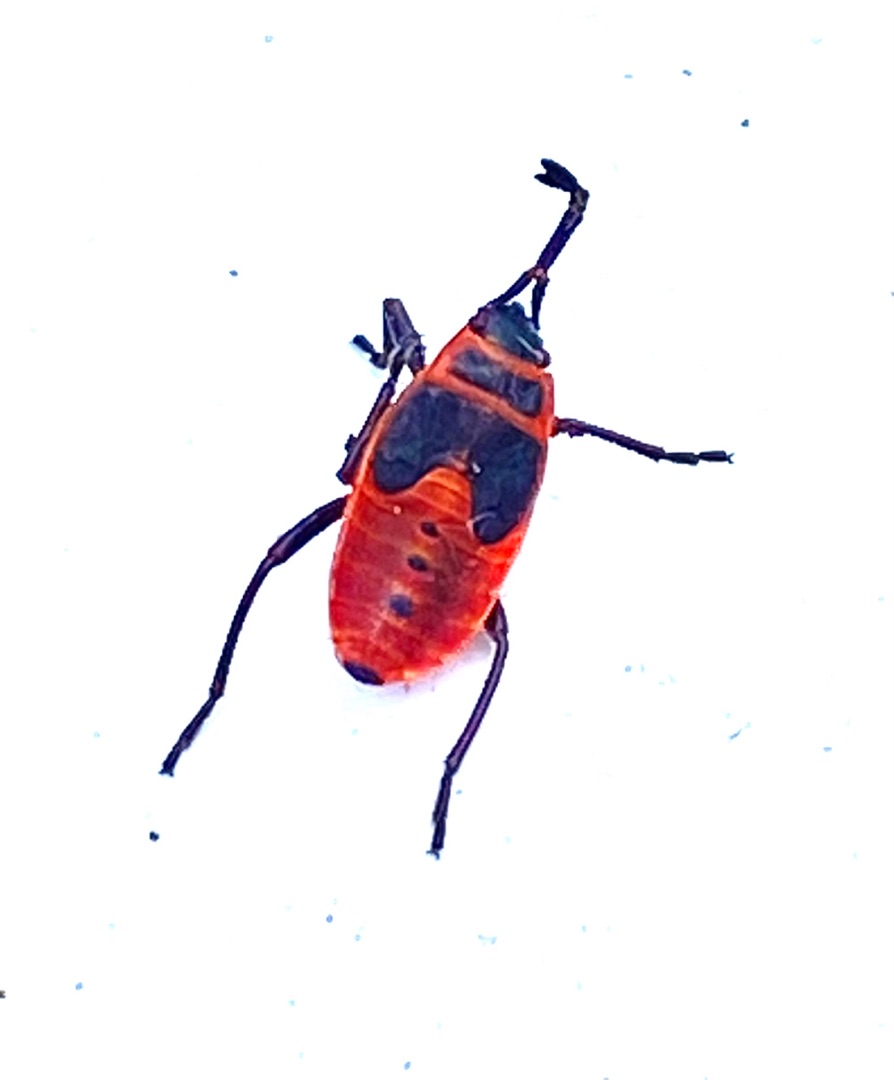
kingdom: Animalia
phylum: Arthropoda
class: Insecta
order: Hemiptera
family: Pyrrhocoridae
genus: Pyrrhocoris
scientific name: Pyrrhocoris apterus
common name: Ildtæge
